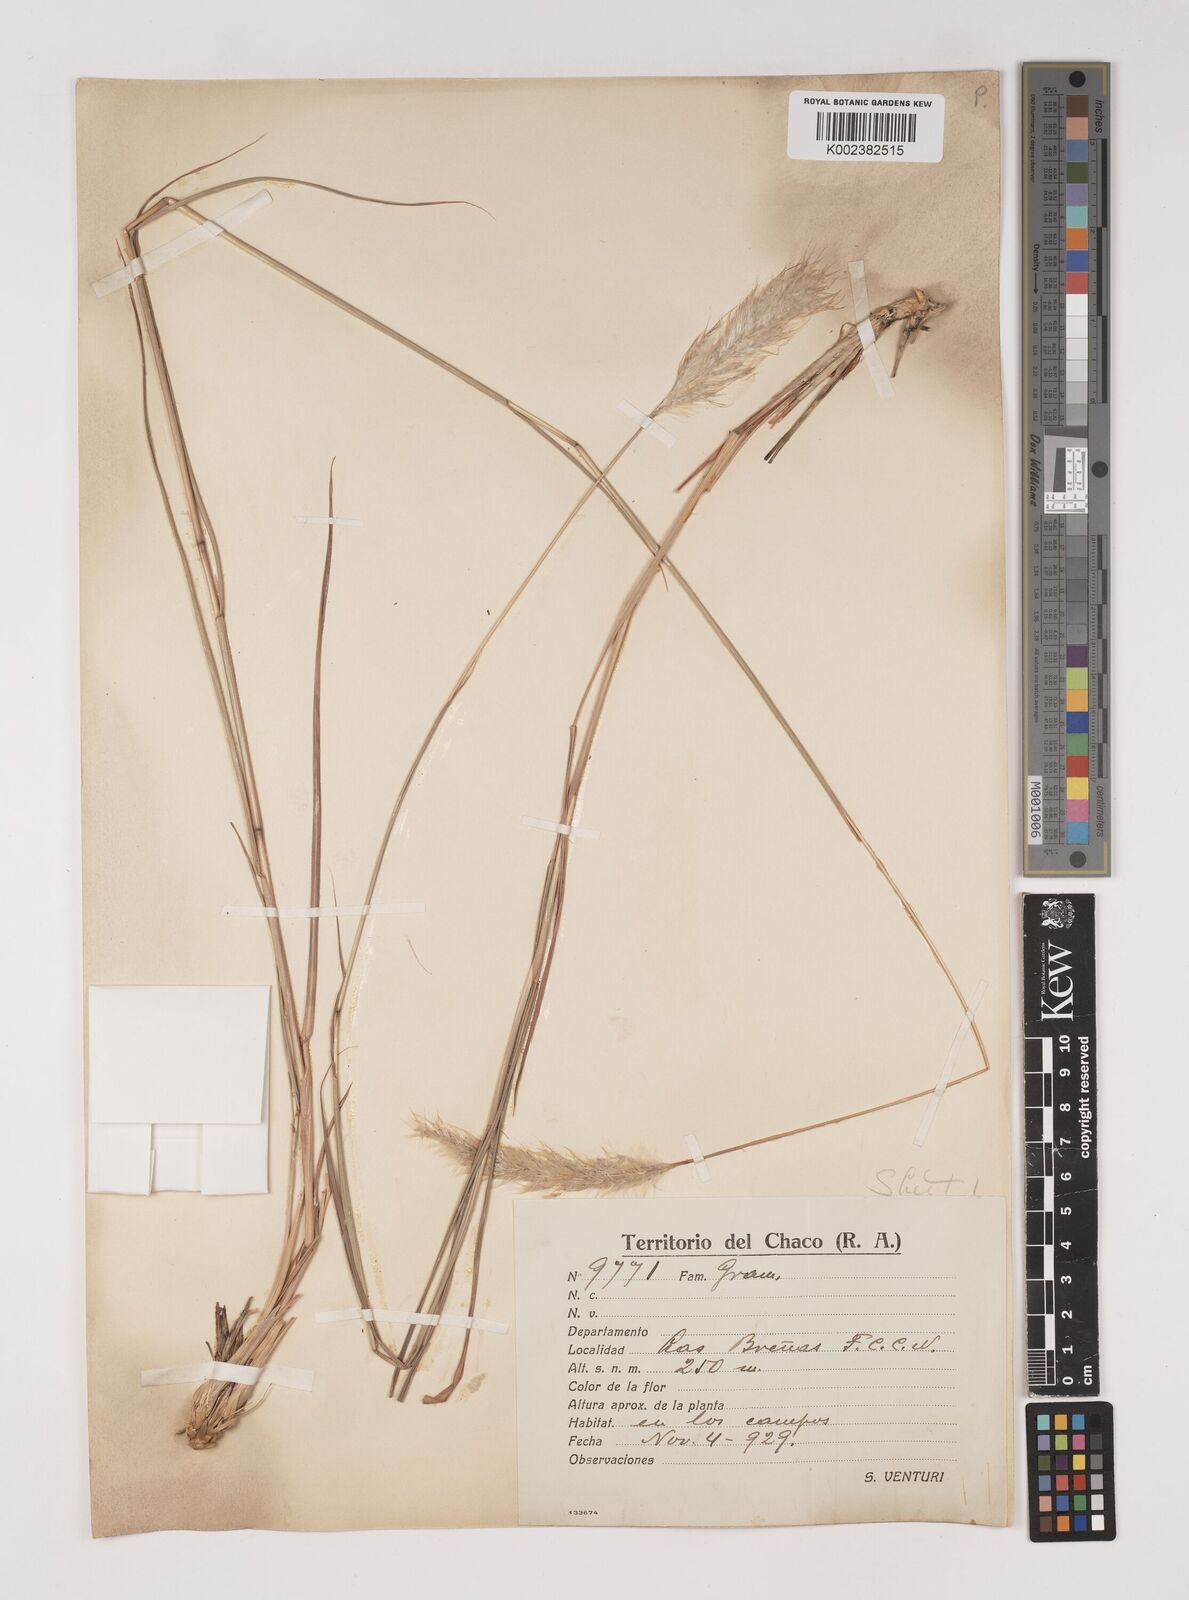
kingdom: Plantae
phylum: Tracheophyta
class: Liliopsida
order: Poales
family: Poaceae
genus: Bothriochloa
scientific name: Bothriochloa laguroides
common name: Silver bluestem
